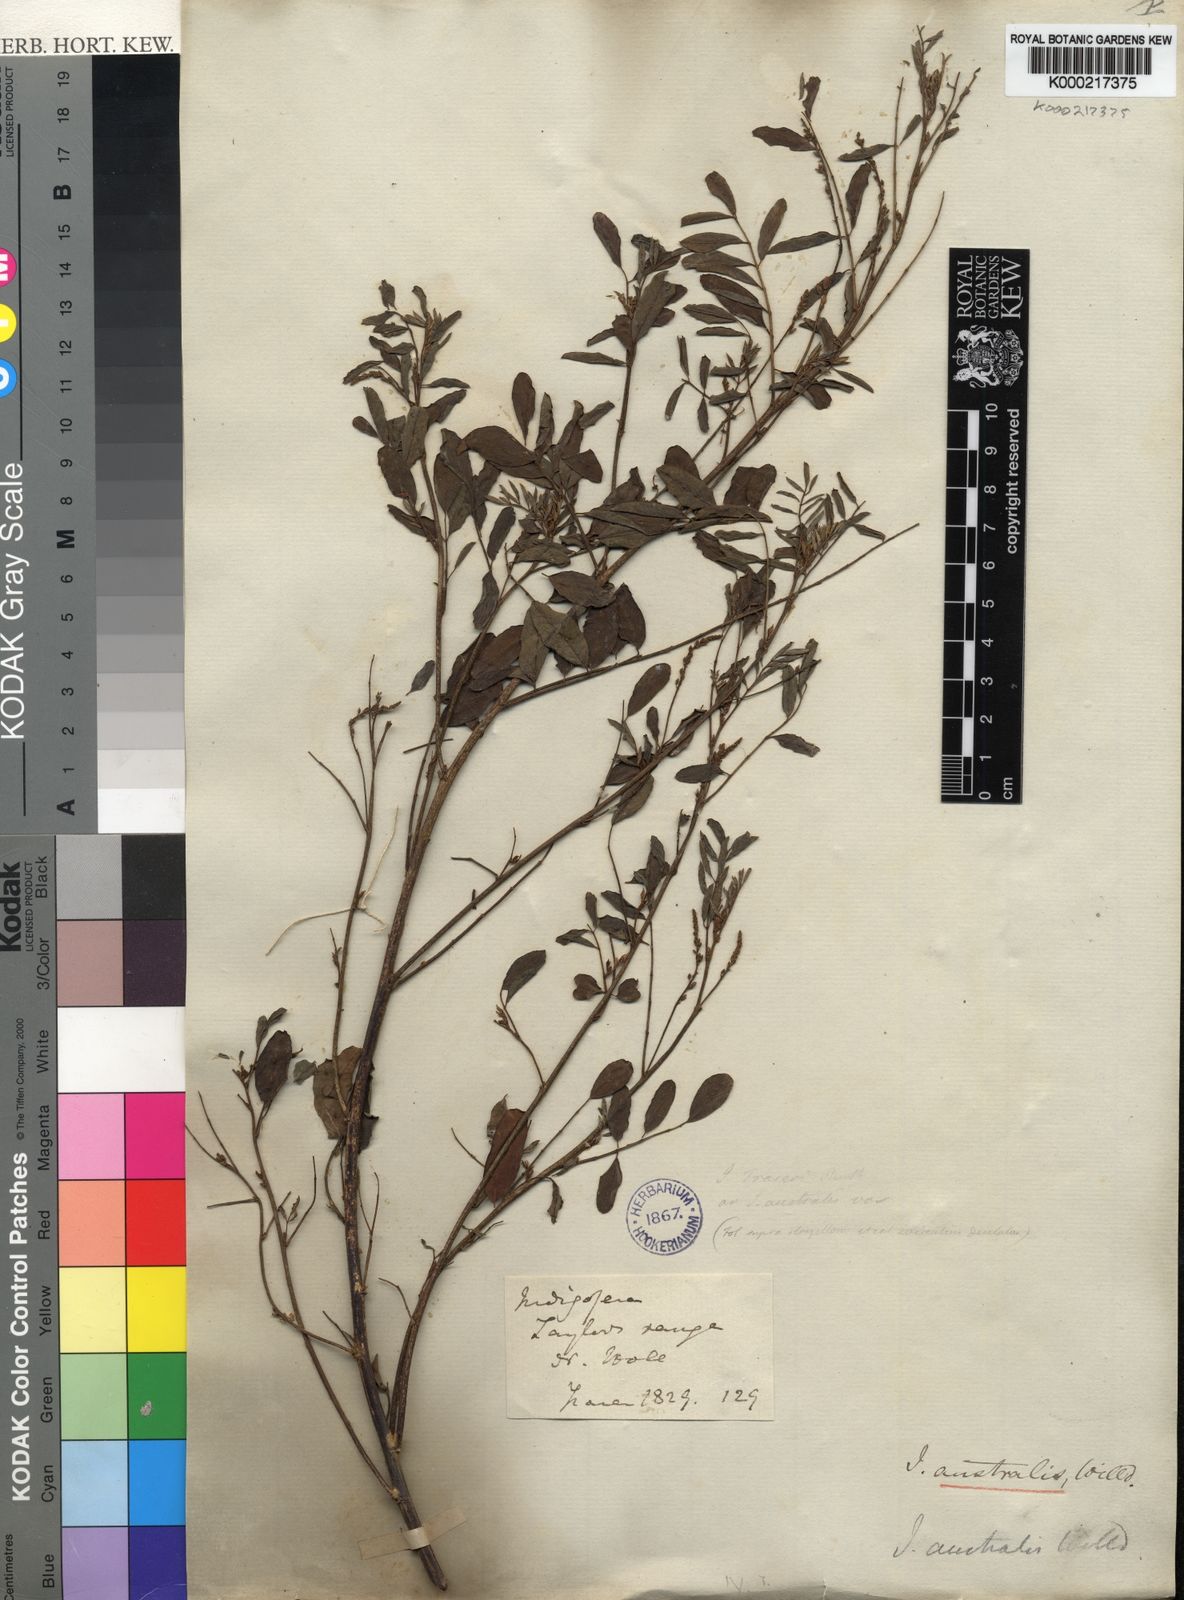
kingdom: Plantae
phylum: Tracheophyta
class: Magnoliopsida
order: Fabales
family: Fabaceae
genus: Indigofera
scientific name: Indigofera australis
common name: Australian indigo
